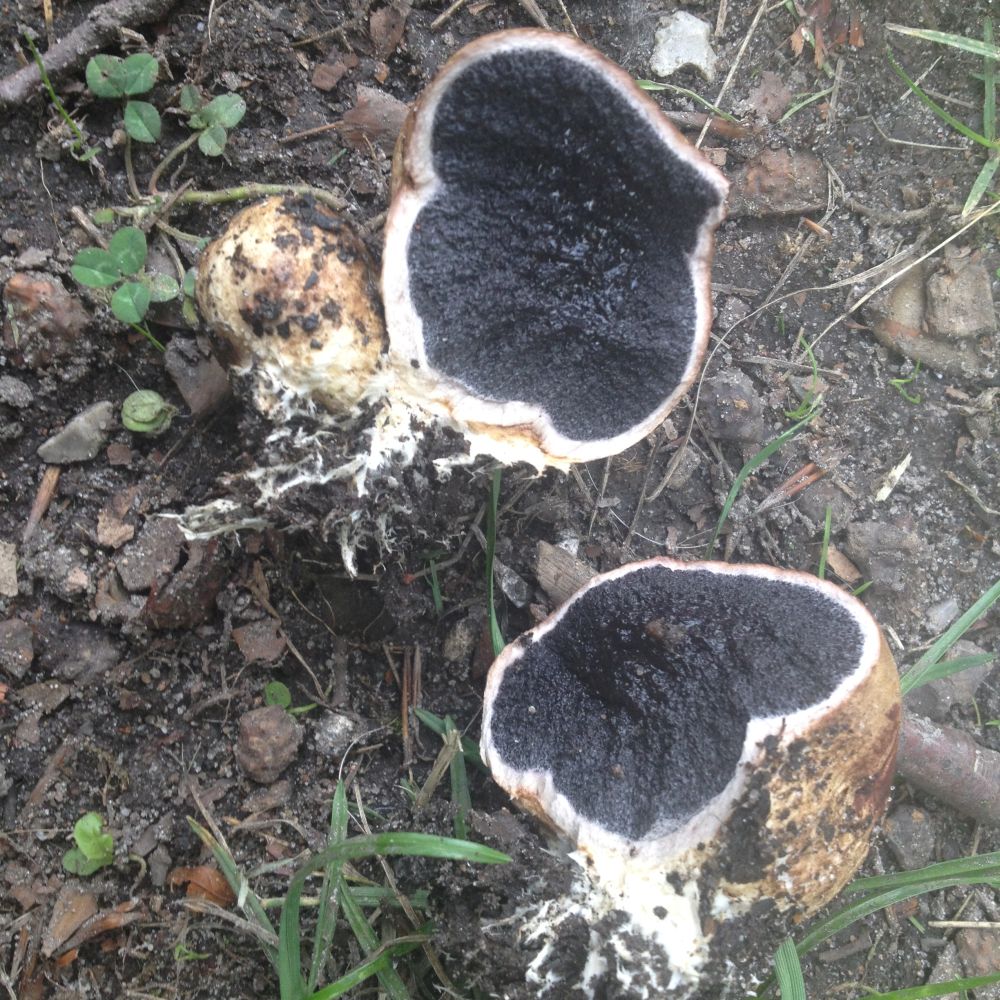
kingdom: Fungi
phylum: Basidiomycota
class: Agaricomycetes
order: Boletales
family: Sclerodermataceae
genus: Scleroderma
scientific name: Scleroderma verrucosum
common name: stilket bruskbold
